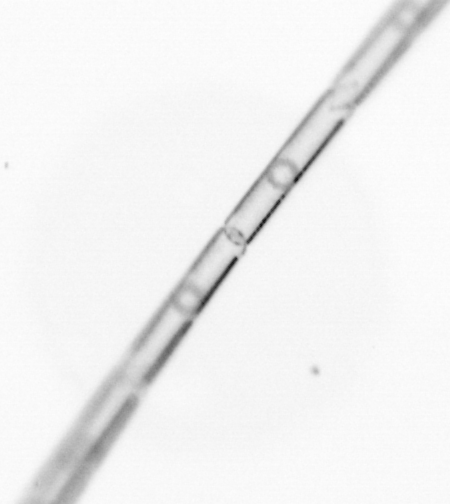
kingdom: Chromista
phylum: Ochrophyta
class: Bacillariophyceae
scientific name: Bacillariophyceae
